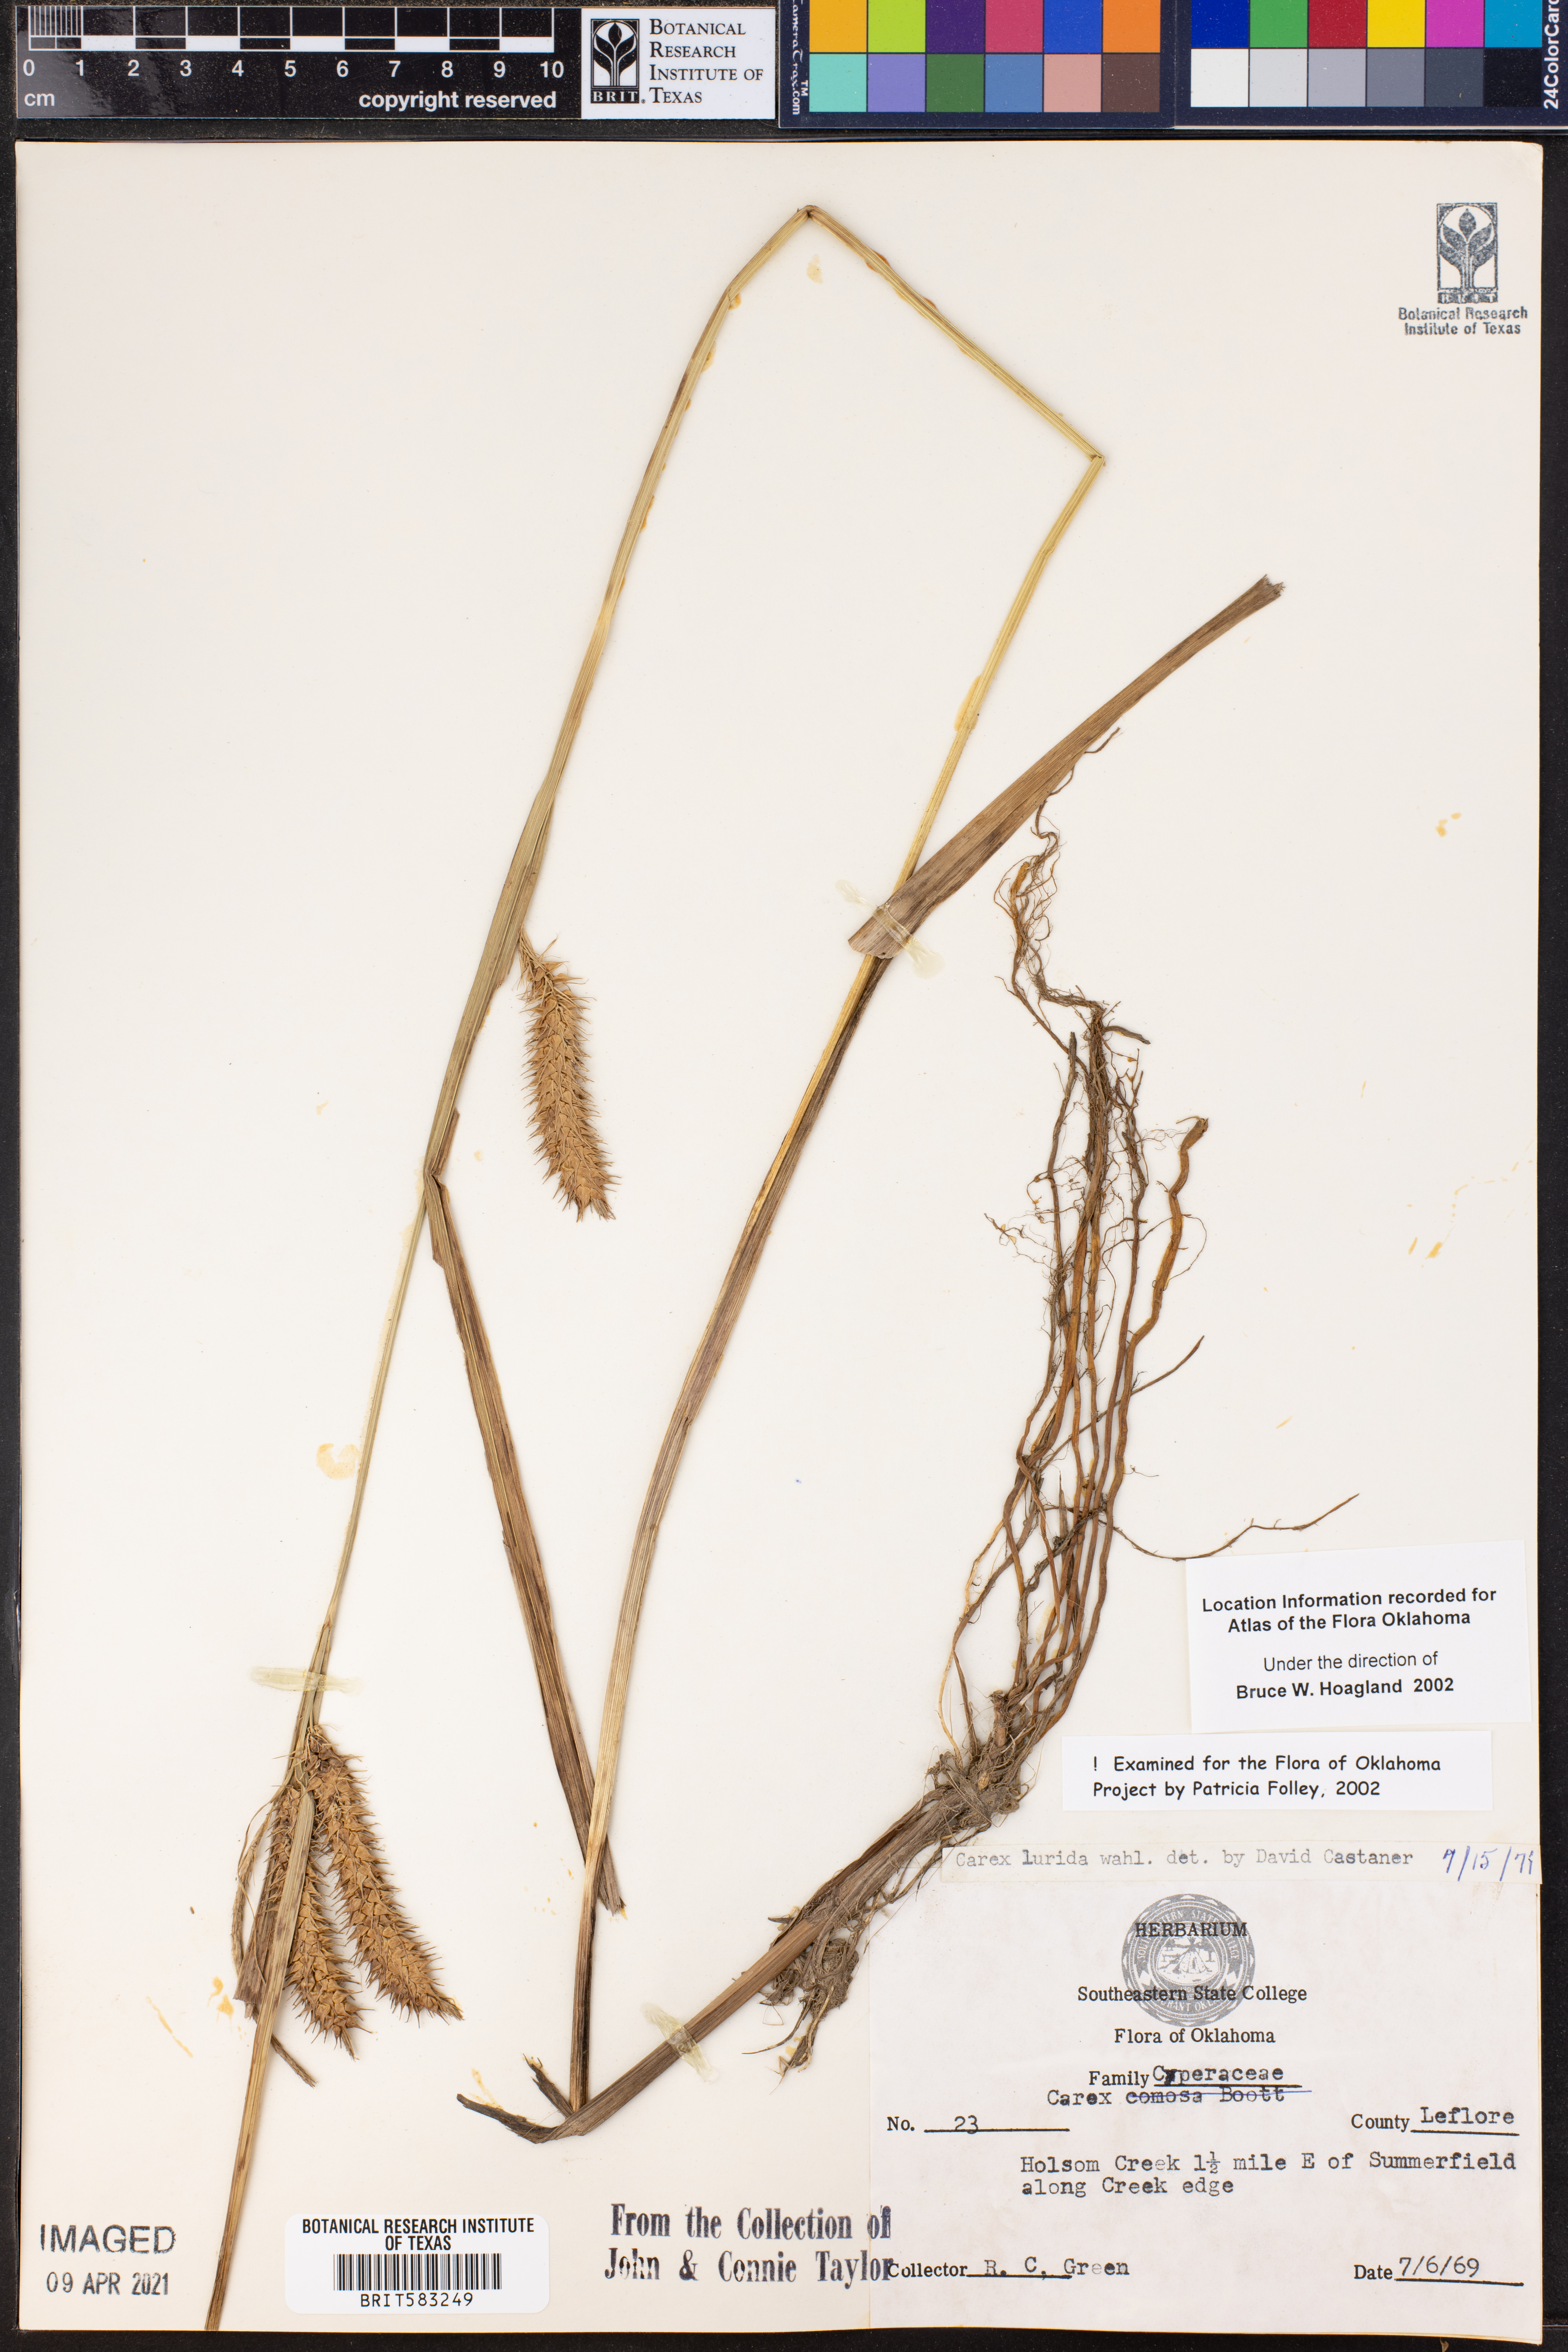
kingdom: Plantae
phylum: Tracheophyta
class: Liliopsida
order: Poales
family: Cyperaceae
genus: Carex
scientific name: Carex lurida
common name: Sallow sedge
